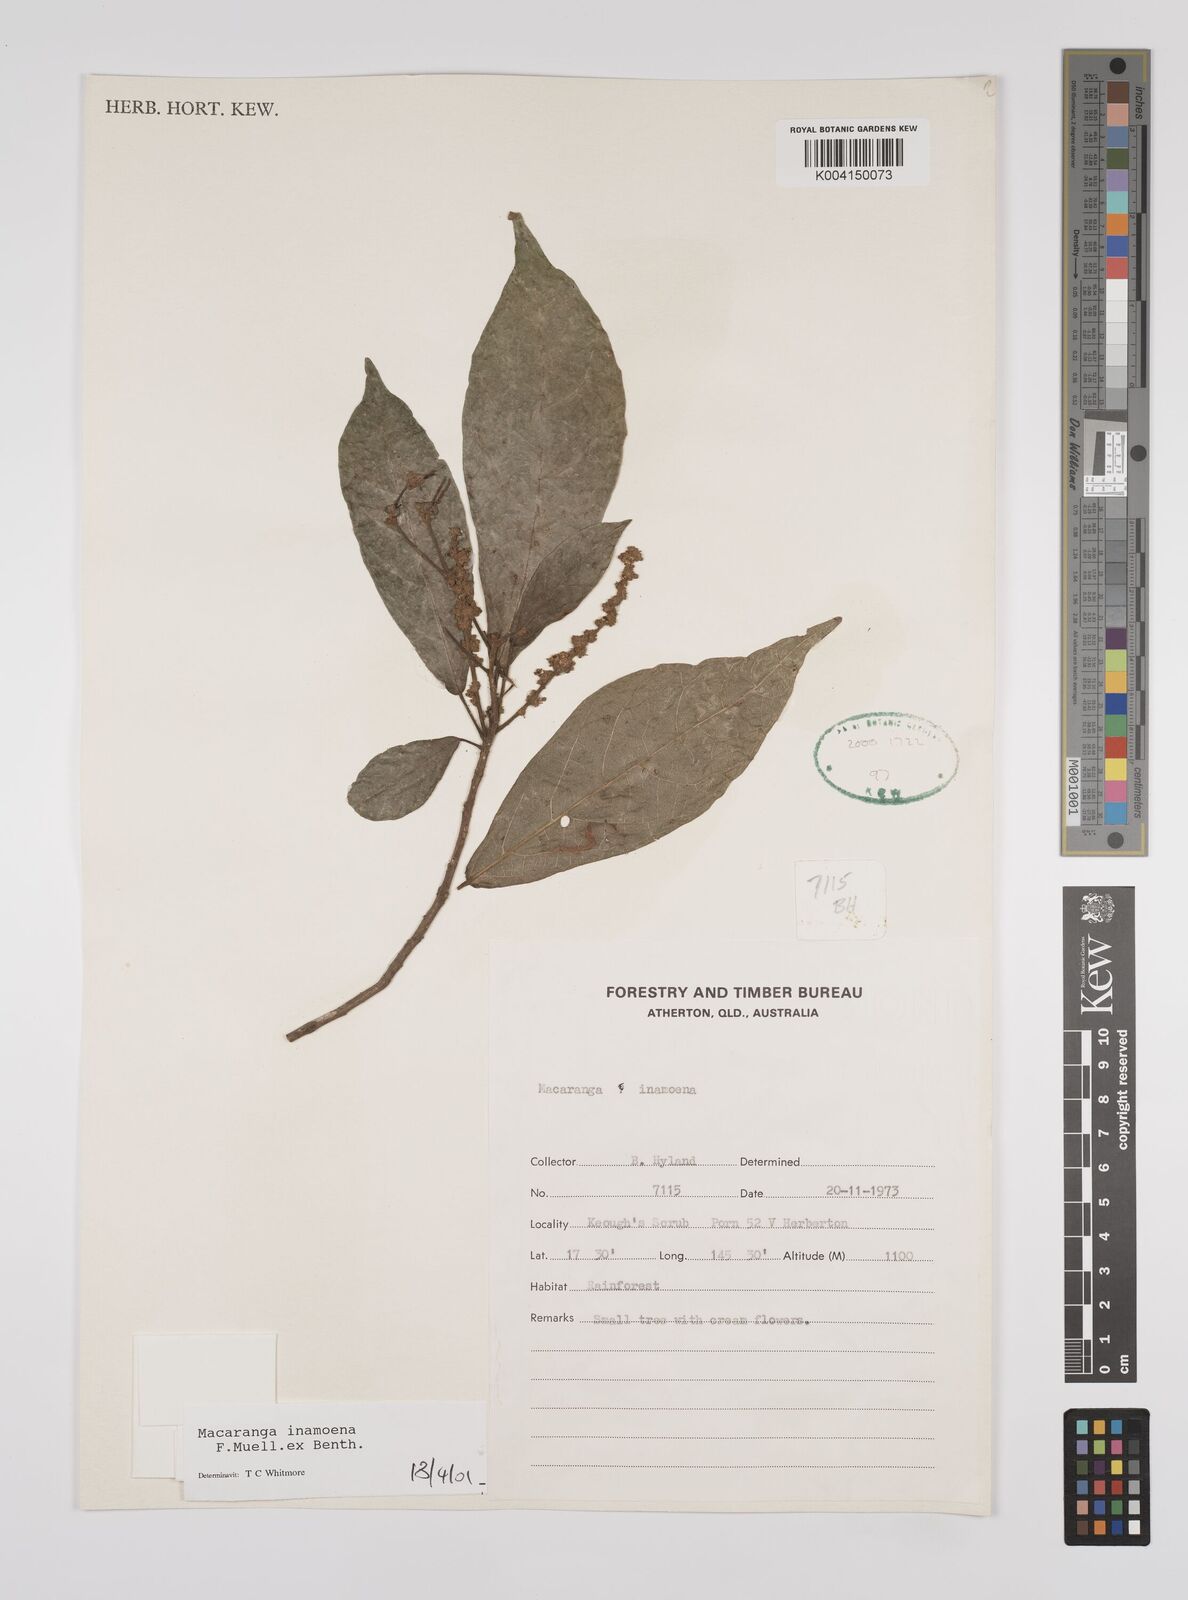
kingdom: Plantae
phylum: Tracheophyta
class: Magnoliopsida
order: Malpighiales
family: Euphorbiaceae
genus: Macaranga
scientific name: Macaranga inamoena
